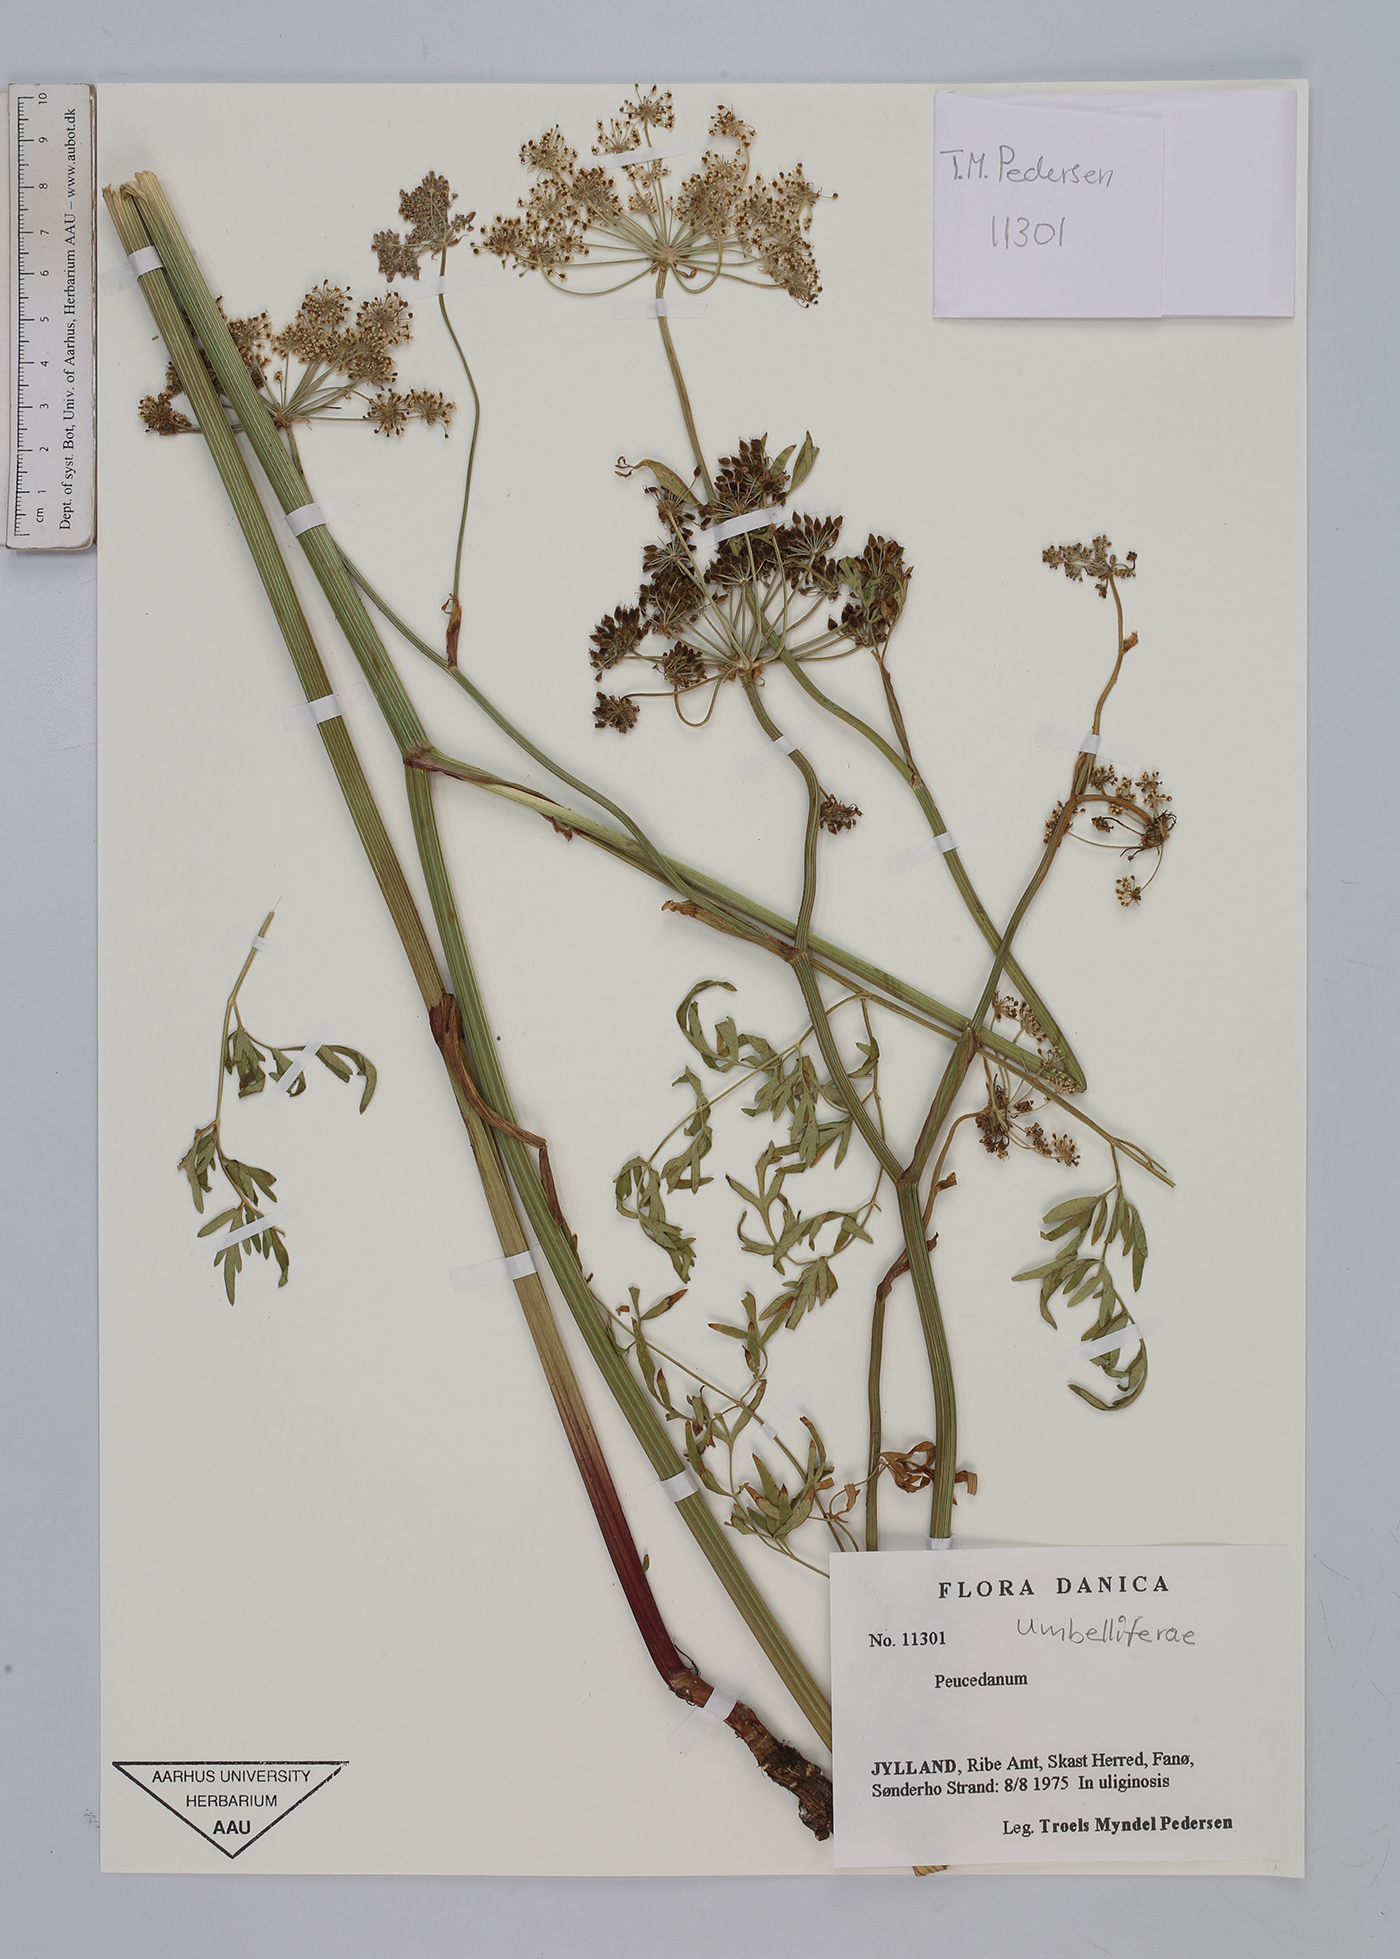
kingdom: Plantae
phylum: Tracheophyta
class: Magnoliopsida
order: Apiales
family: Apiaceae
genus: Peucedanum
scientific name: Peucedanum
